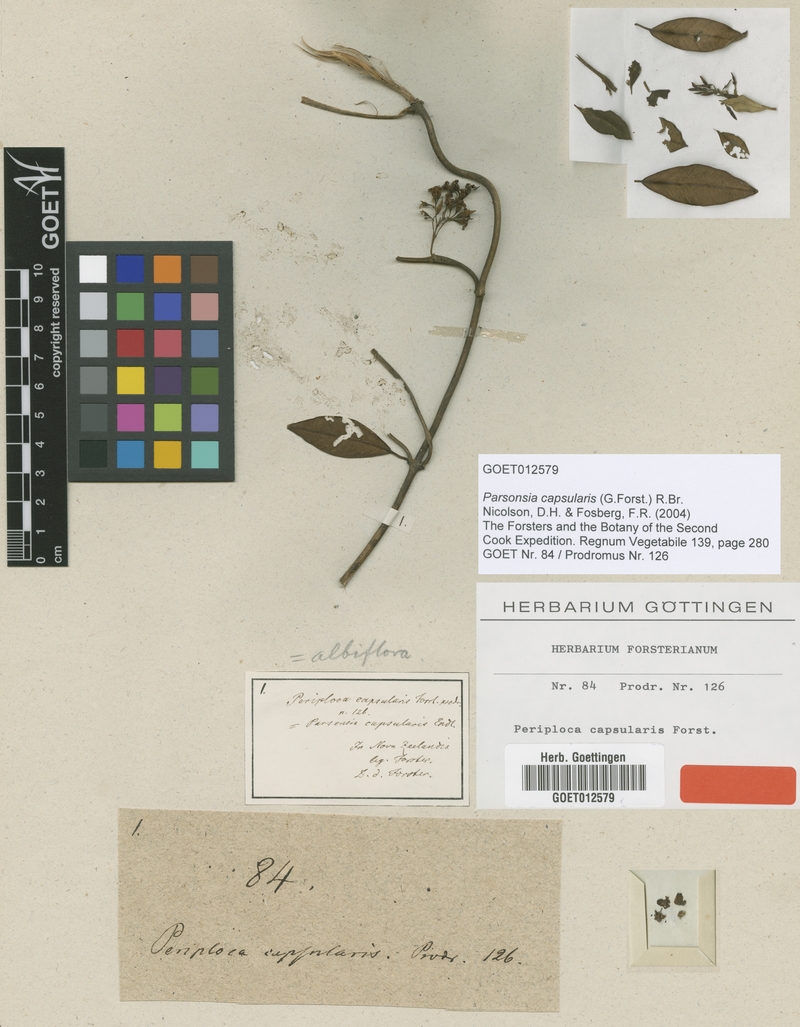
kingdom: Plantae
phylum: Tracheophyta
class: Magnoliopsida
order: Gentianales
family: Apocynaceae
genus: Parsonsia
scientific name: Parsonsia capsularis
